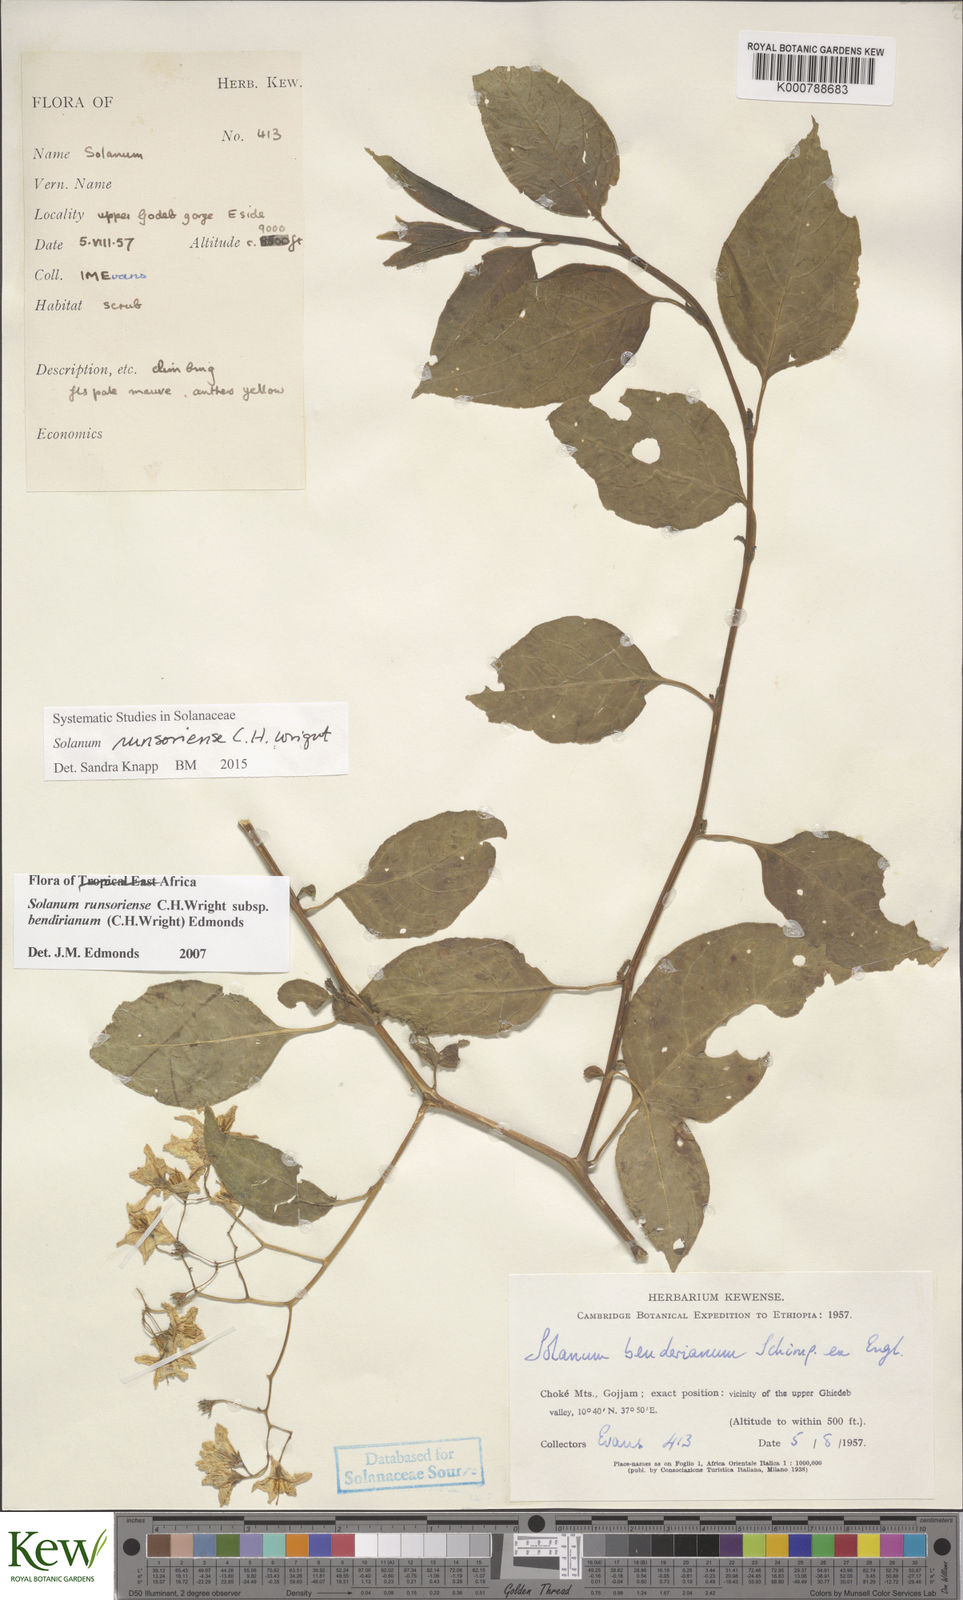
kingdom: Plantae
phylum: Tracheophyta
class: Magnoliopsida
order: Solanales
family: Solanaceae
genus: Solanum
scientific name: Solanum runsoriense
